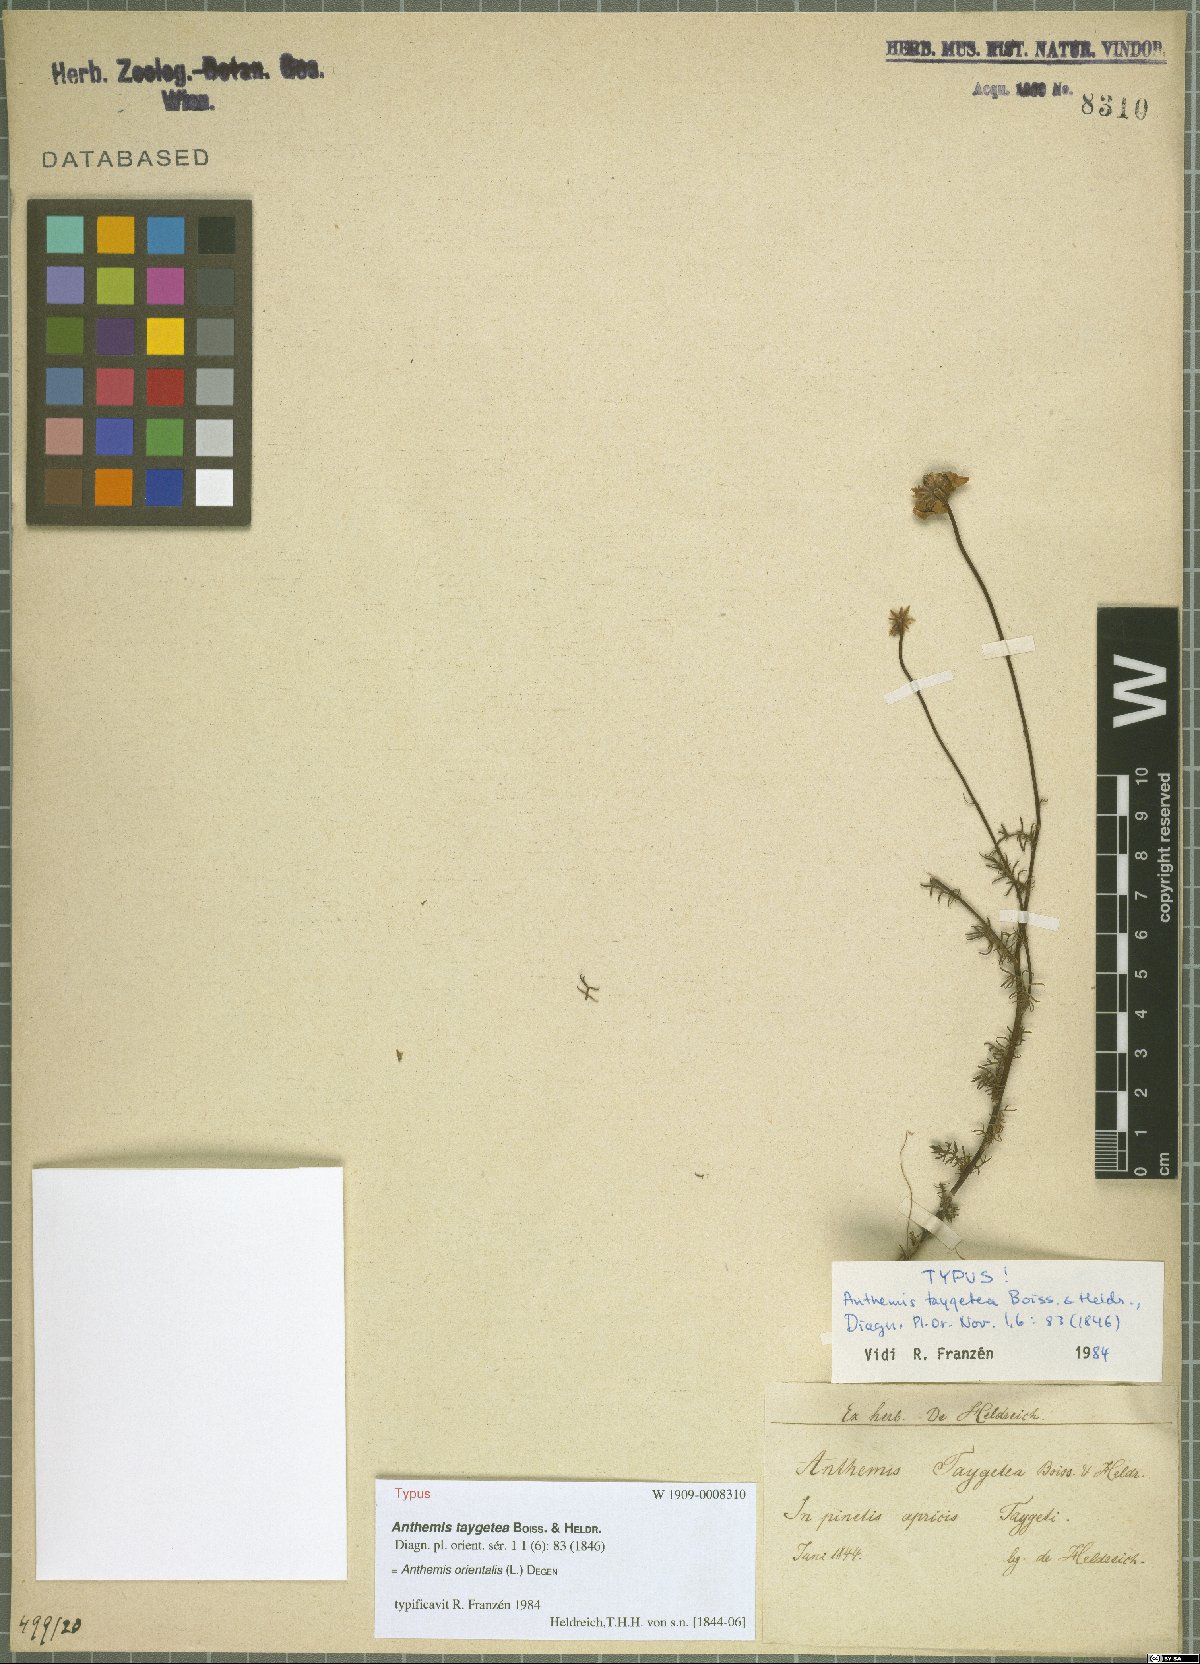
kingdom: Plantae
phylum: Tracheophyta
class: Magnoliopsida
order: Asterales
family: Asteraceae
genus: Anthemis
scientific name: Anthemis orientalis
